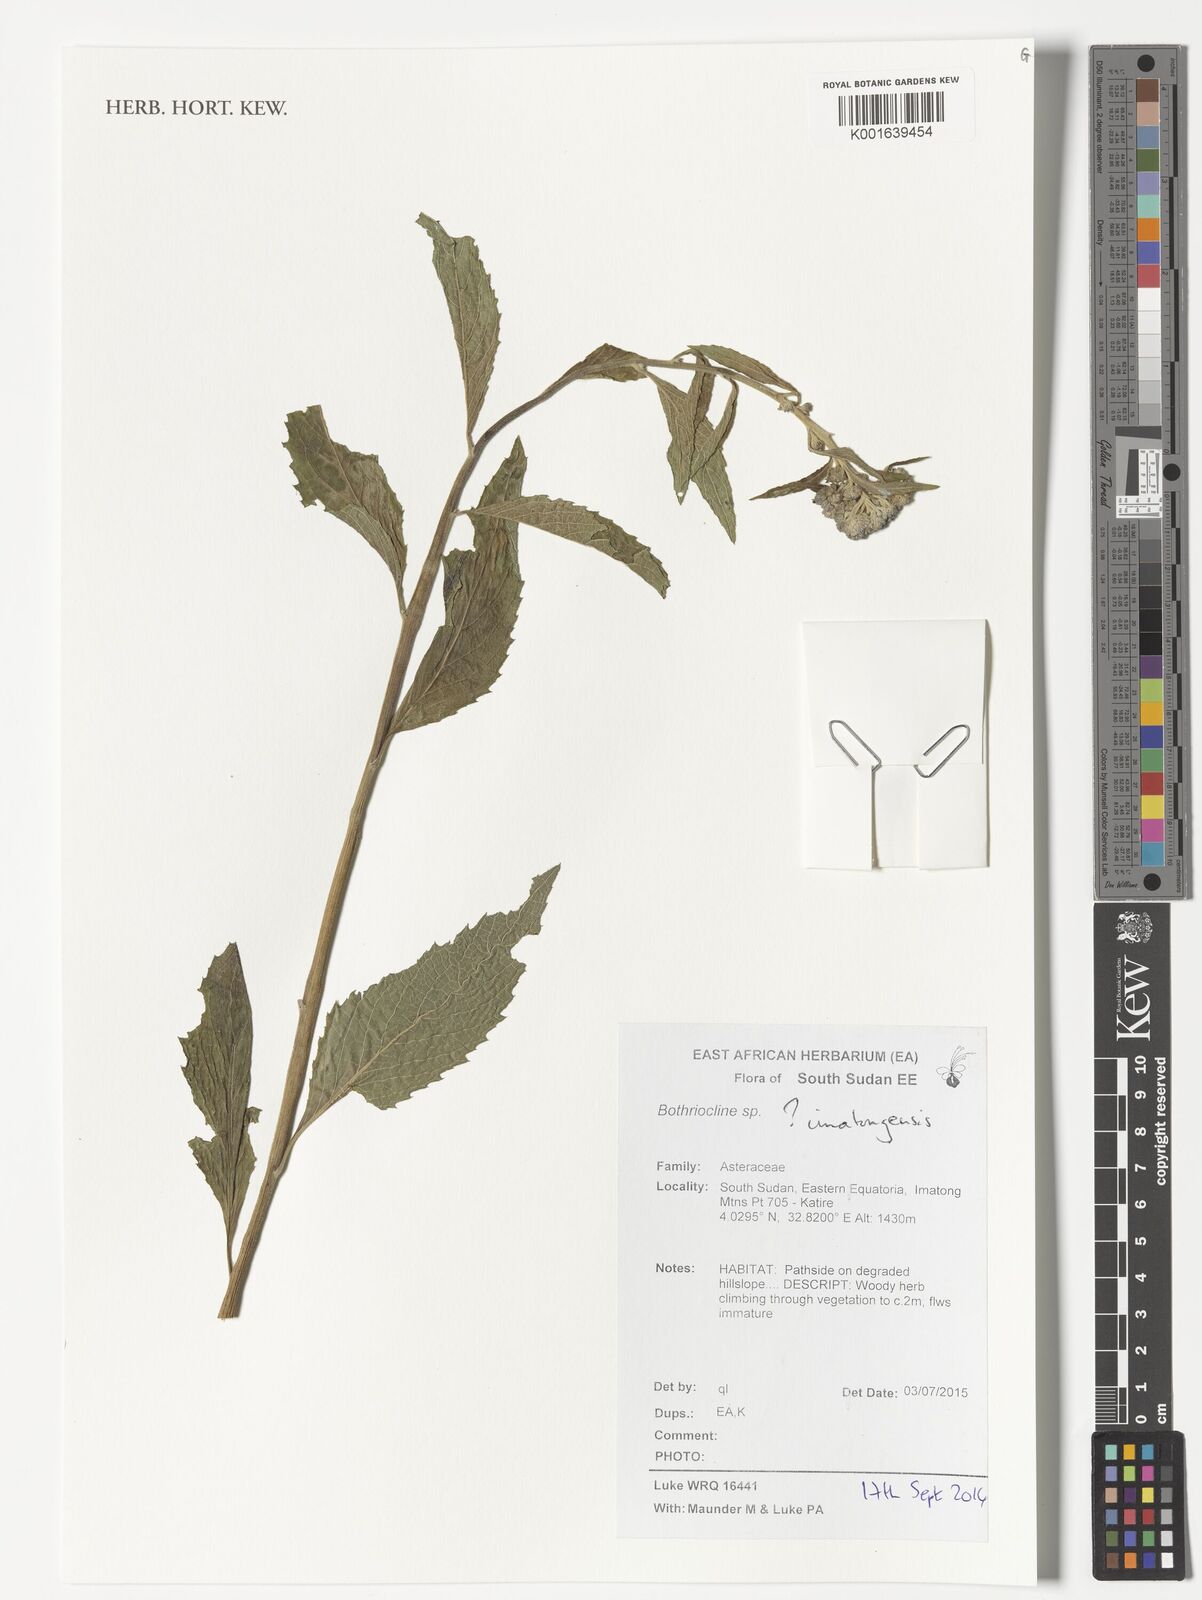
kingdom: Plantae
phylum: Tracheophyta
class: Magnoliopsida
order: Asterales
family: Asteraceae
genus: Bothriocline
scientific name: Bothriocline imatongensis
